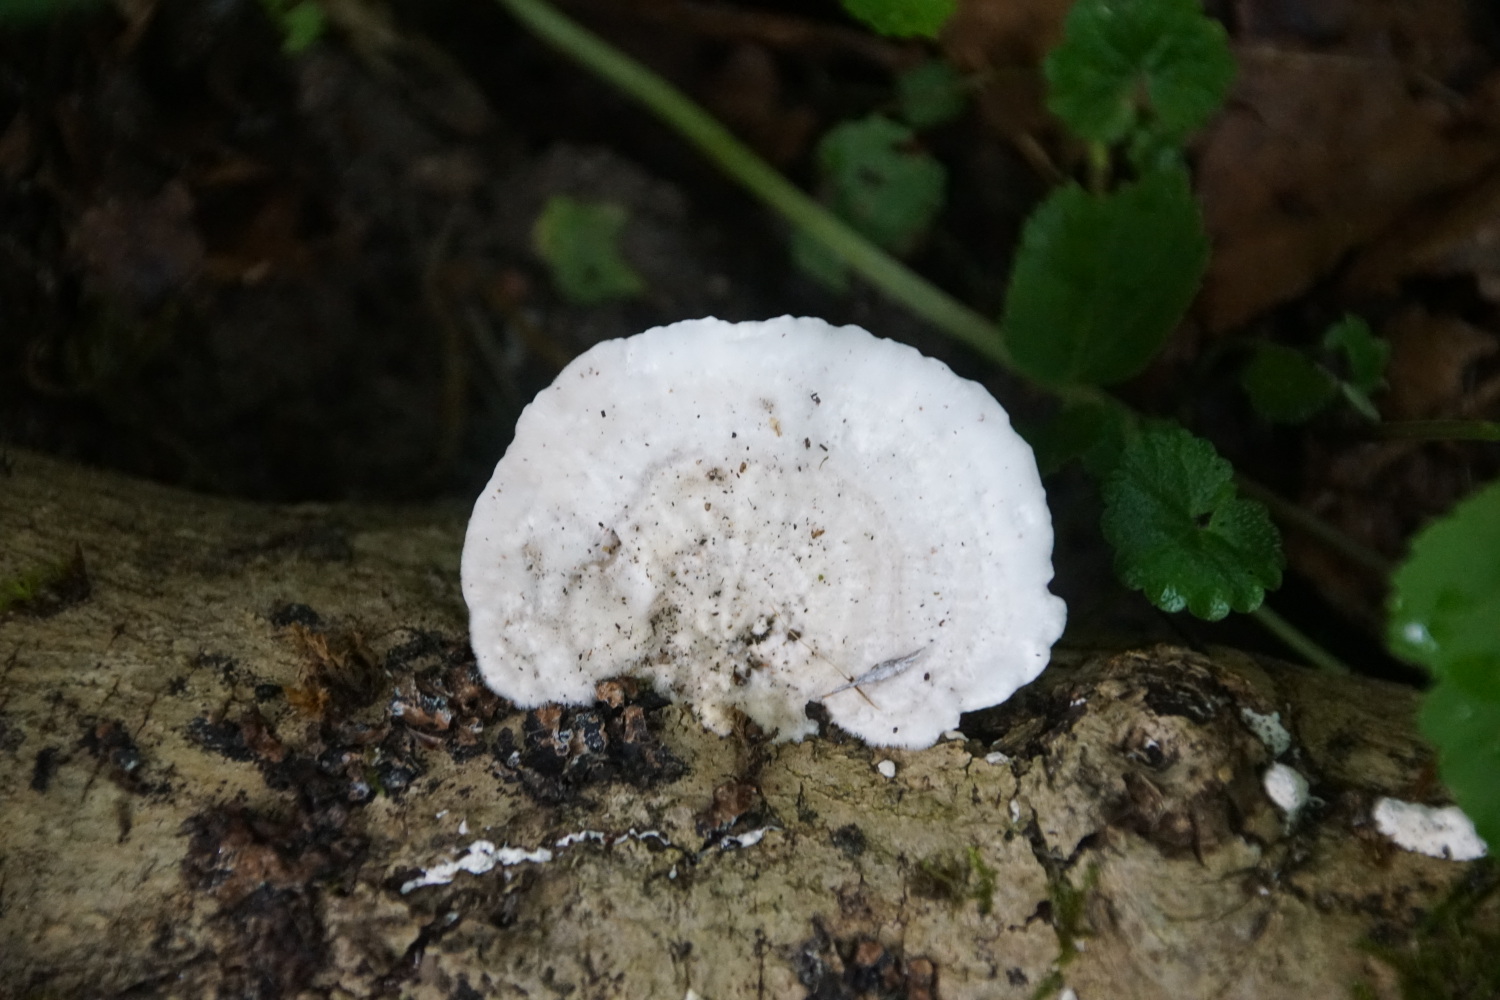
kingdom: Fungi
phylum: Basidiomycota
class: Agaricomycetes
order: Polyporales
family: Polyporaceae
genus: Trametes
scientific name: Trametes hirsuta
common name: håret læderporesvamp
